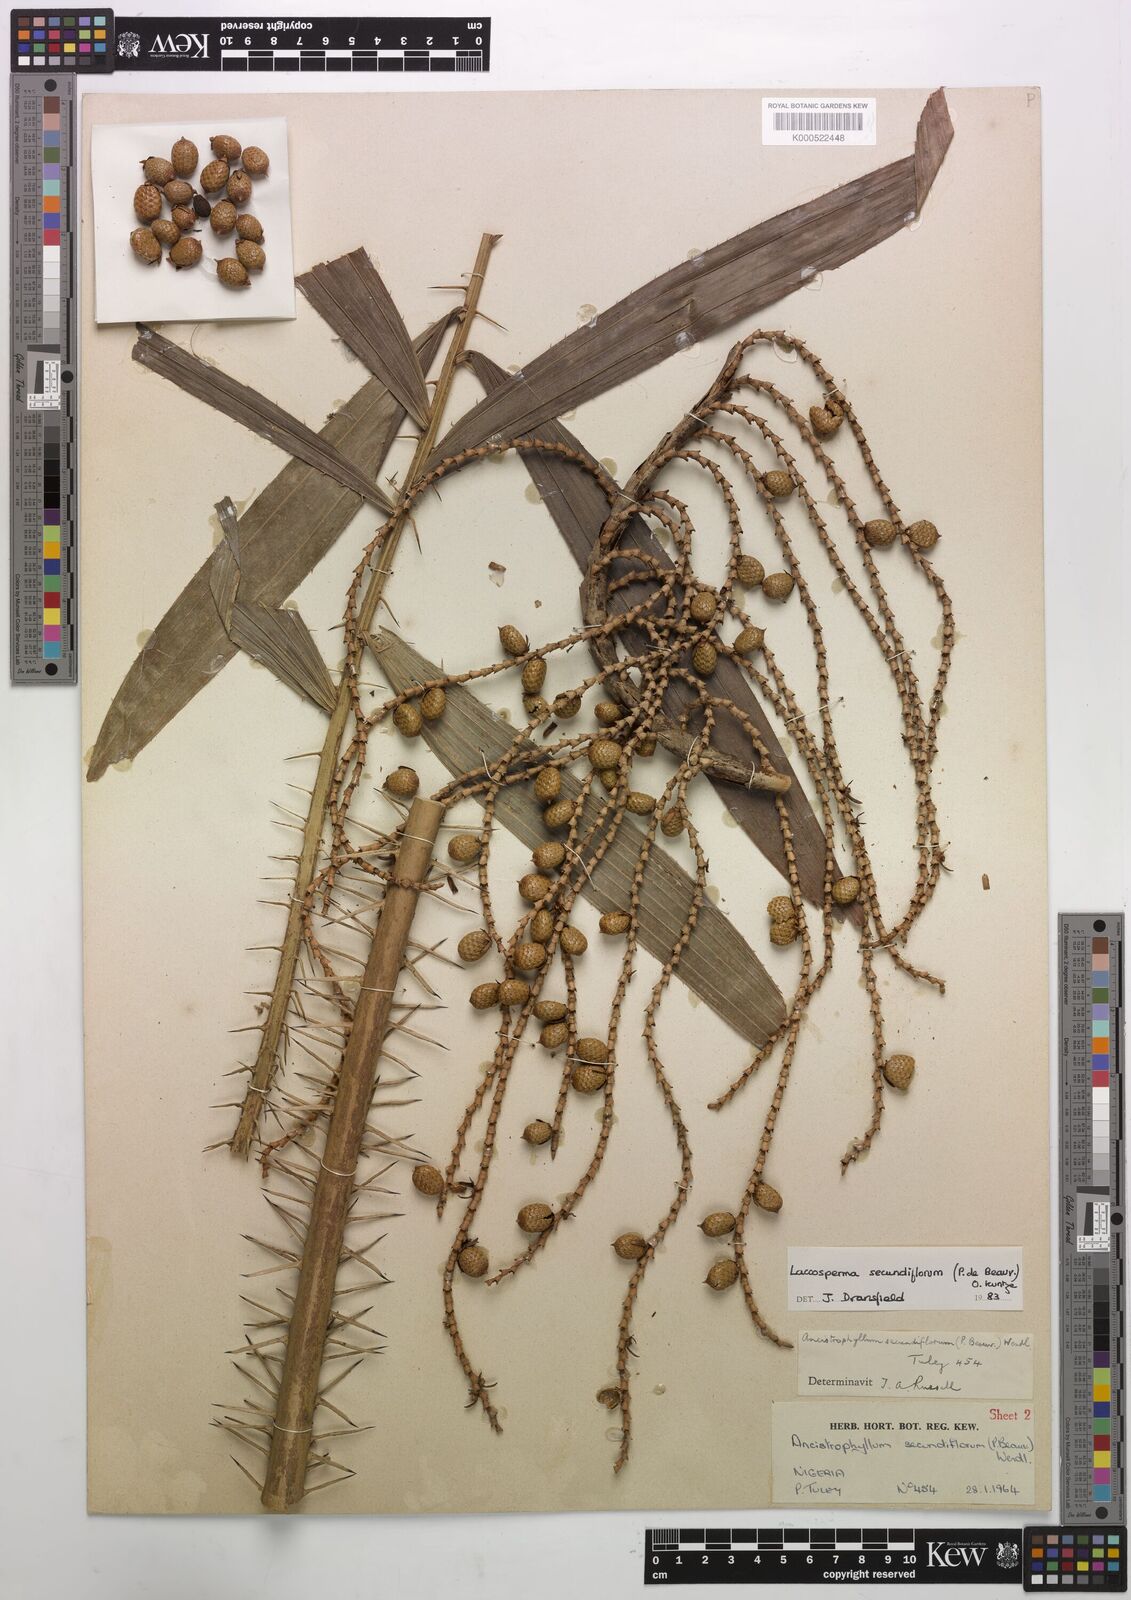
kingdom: Plantae
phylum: Tracheophyta
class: Liliopsida
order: Arecales
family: Arecaceae
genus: Laccosperma
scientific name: Laccosperma secundiflorum
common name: Rattan
